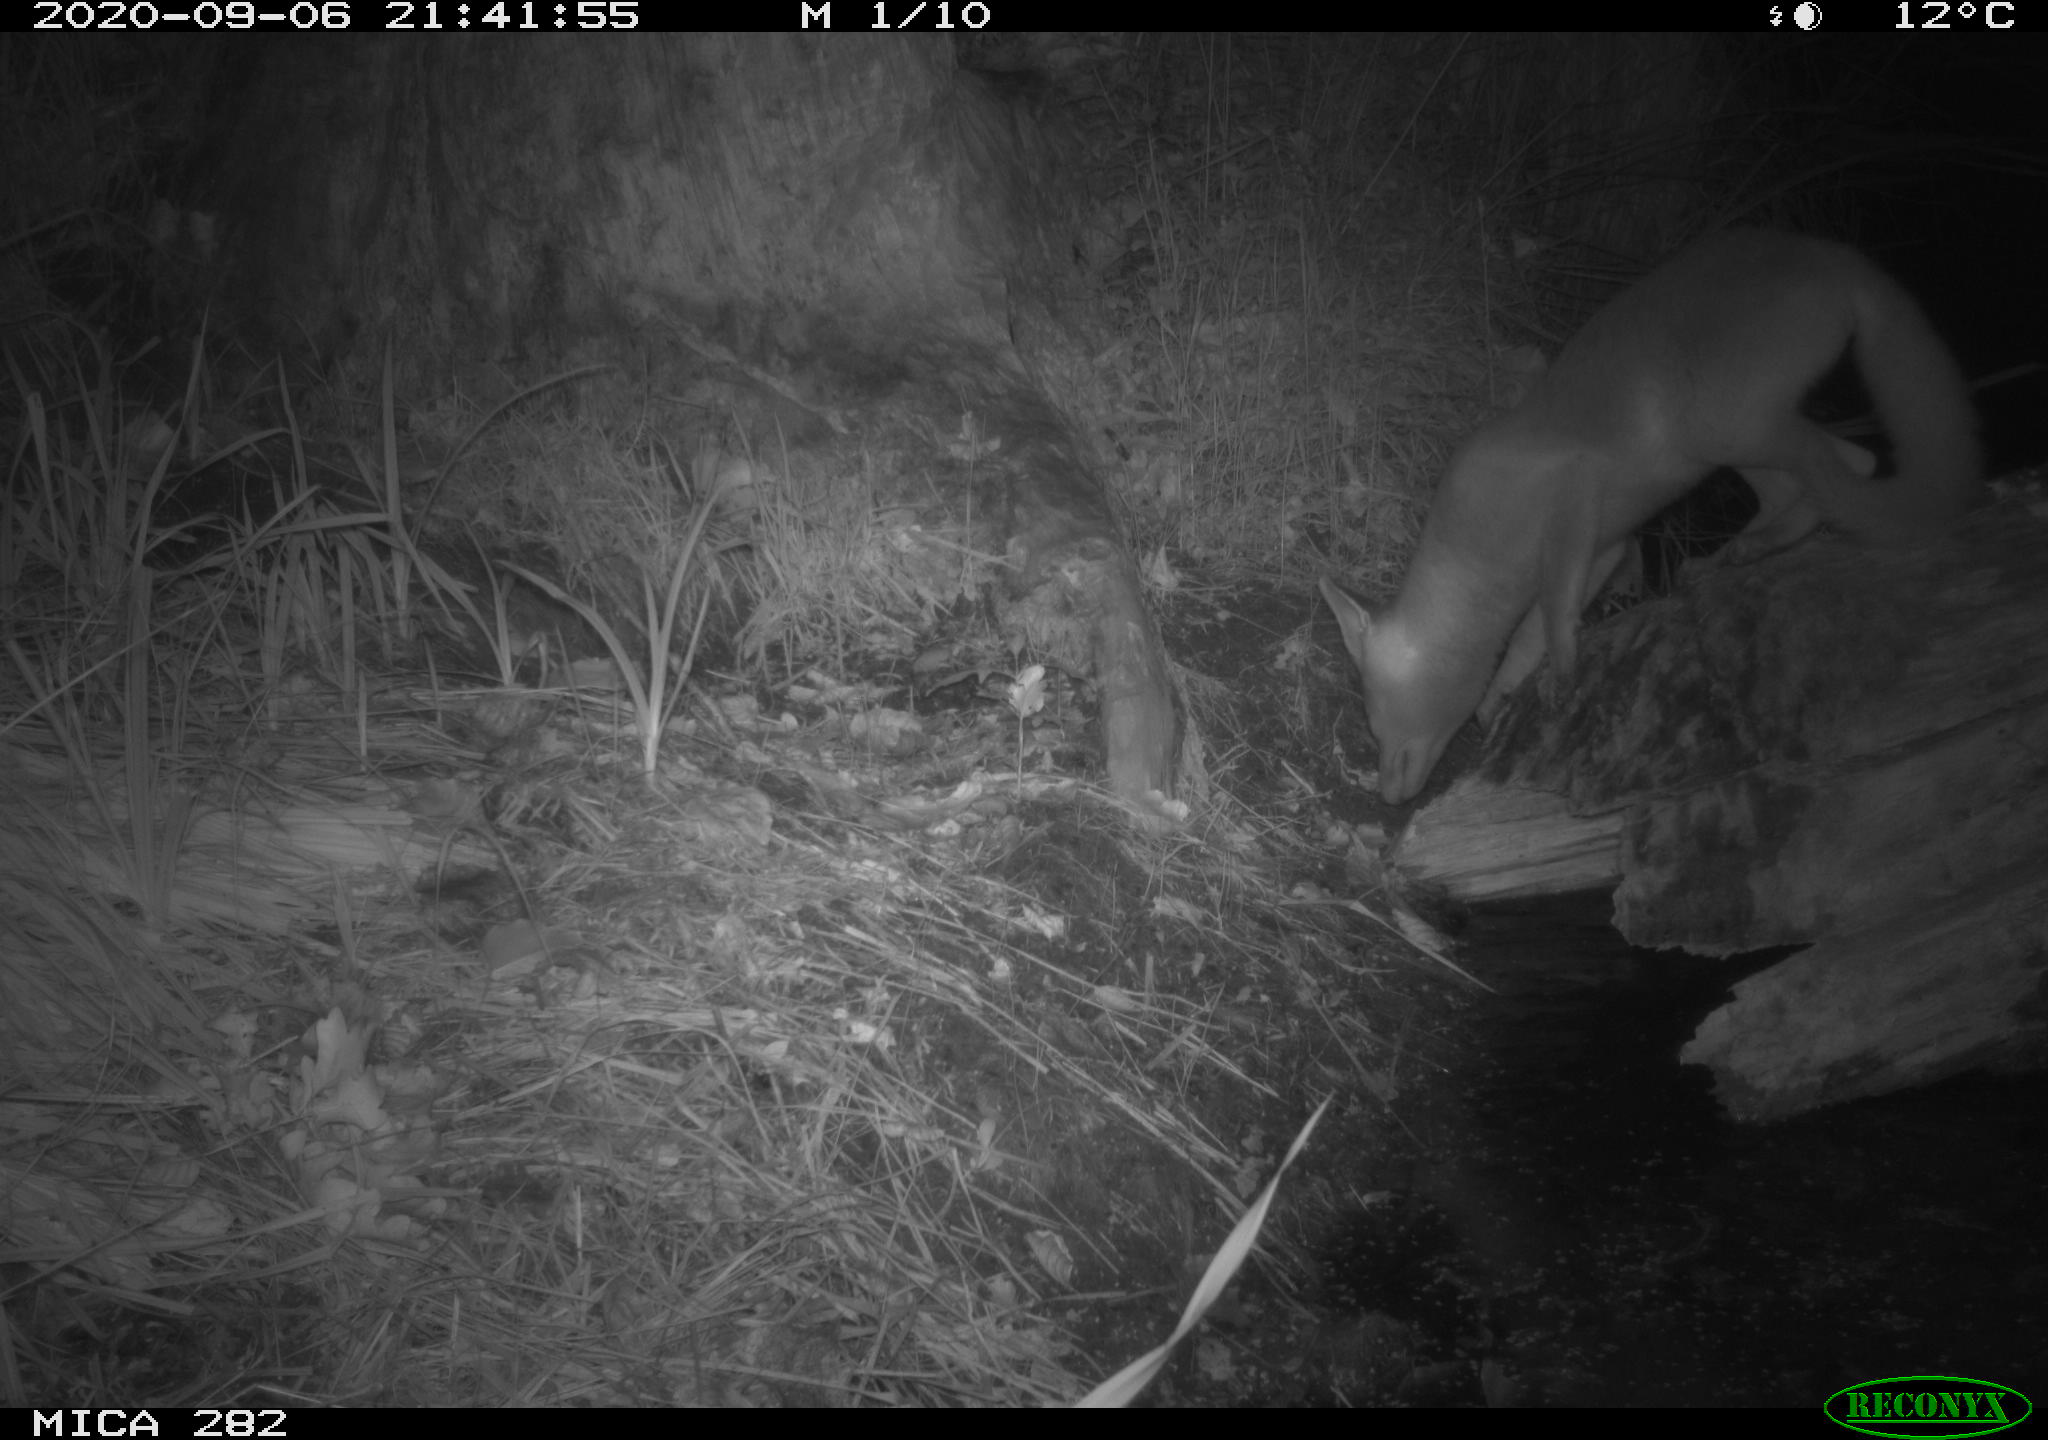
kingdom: Animalia
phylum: Chordata
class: Mammalia
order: Carnivora
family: Canidae
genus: Vulpes
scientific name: Vulpes vulpes
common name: Red fox
